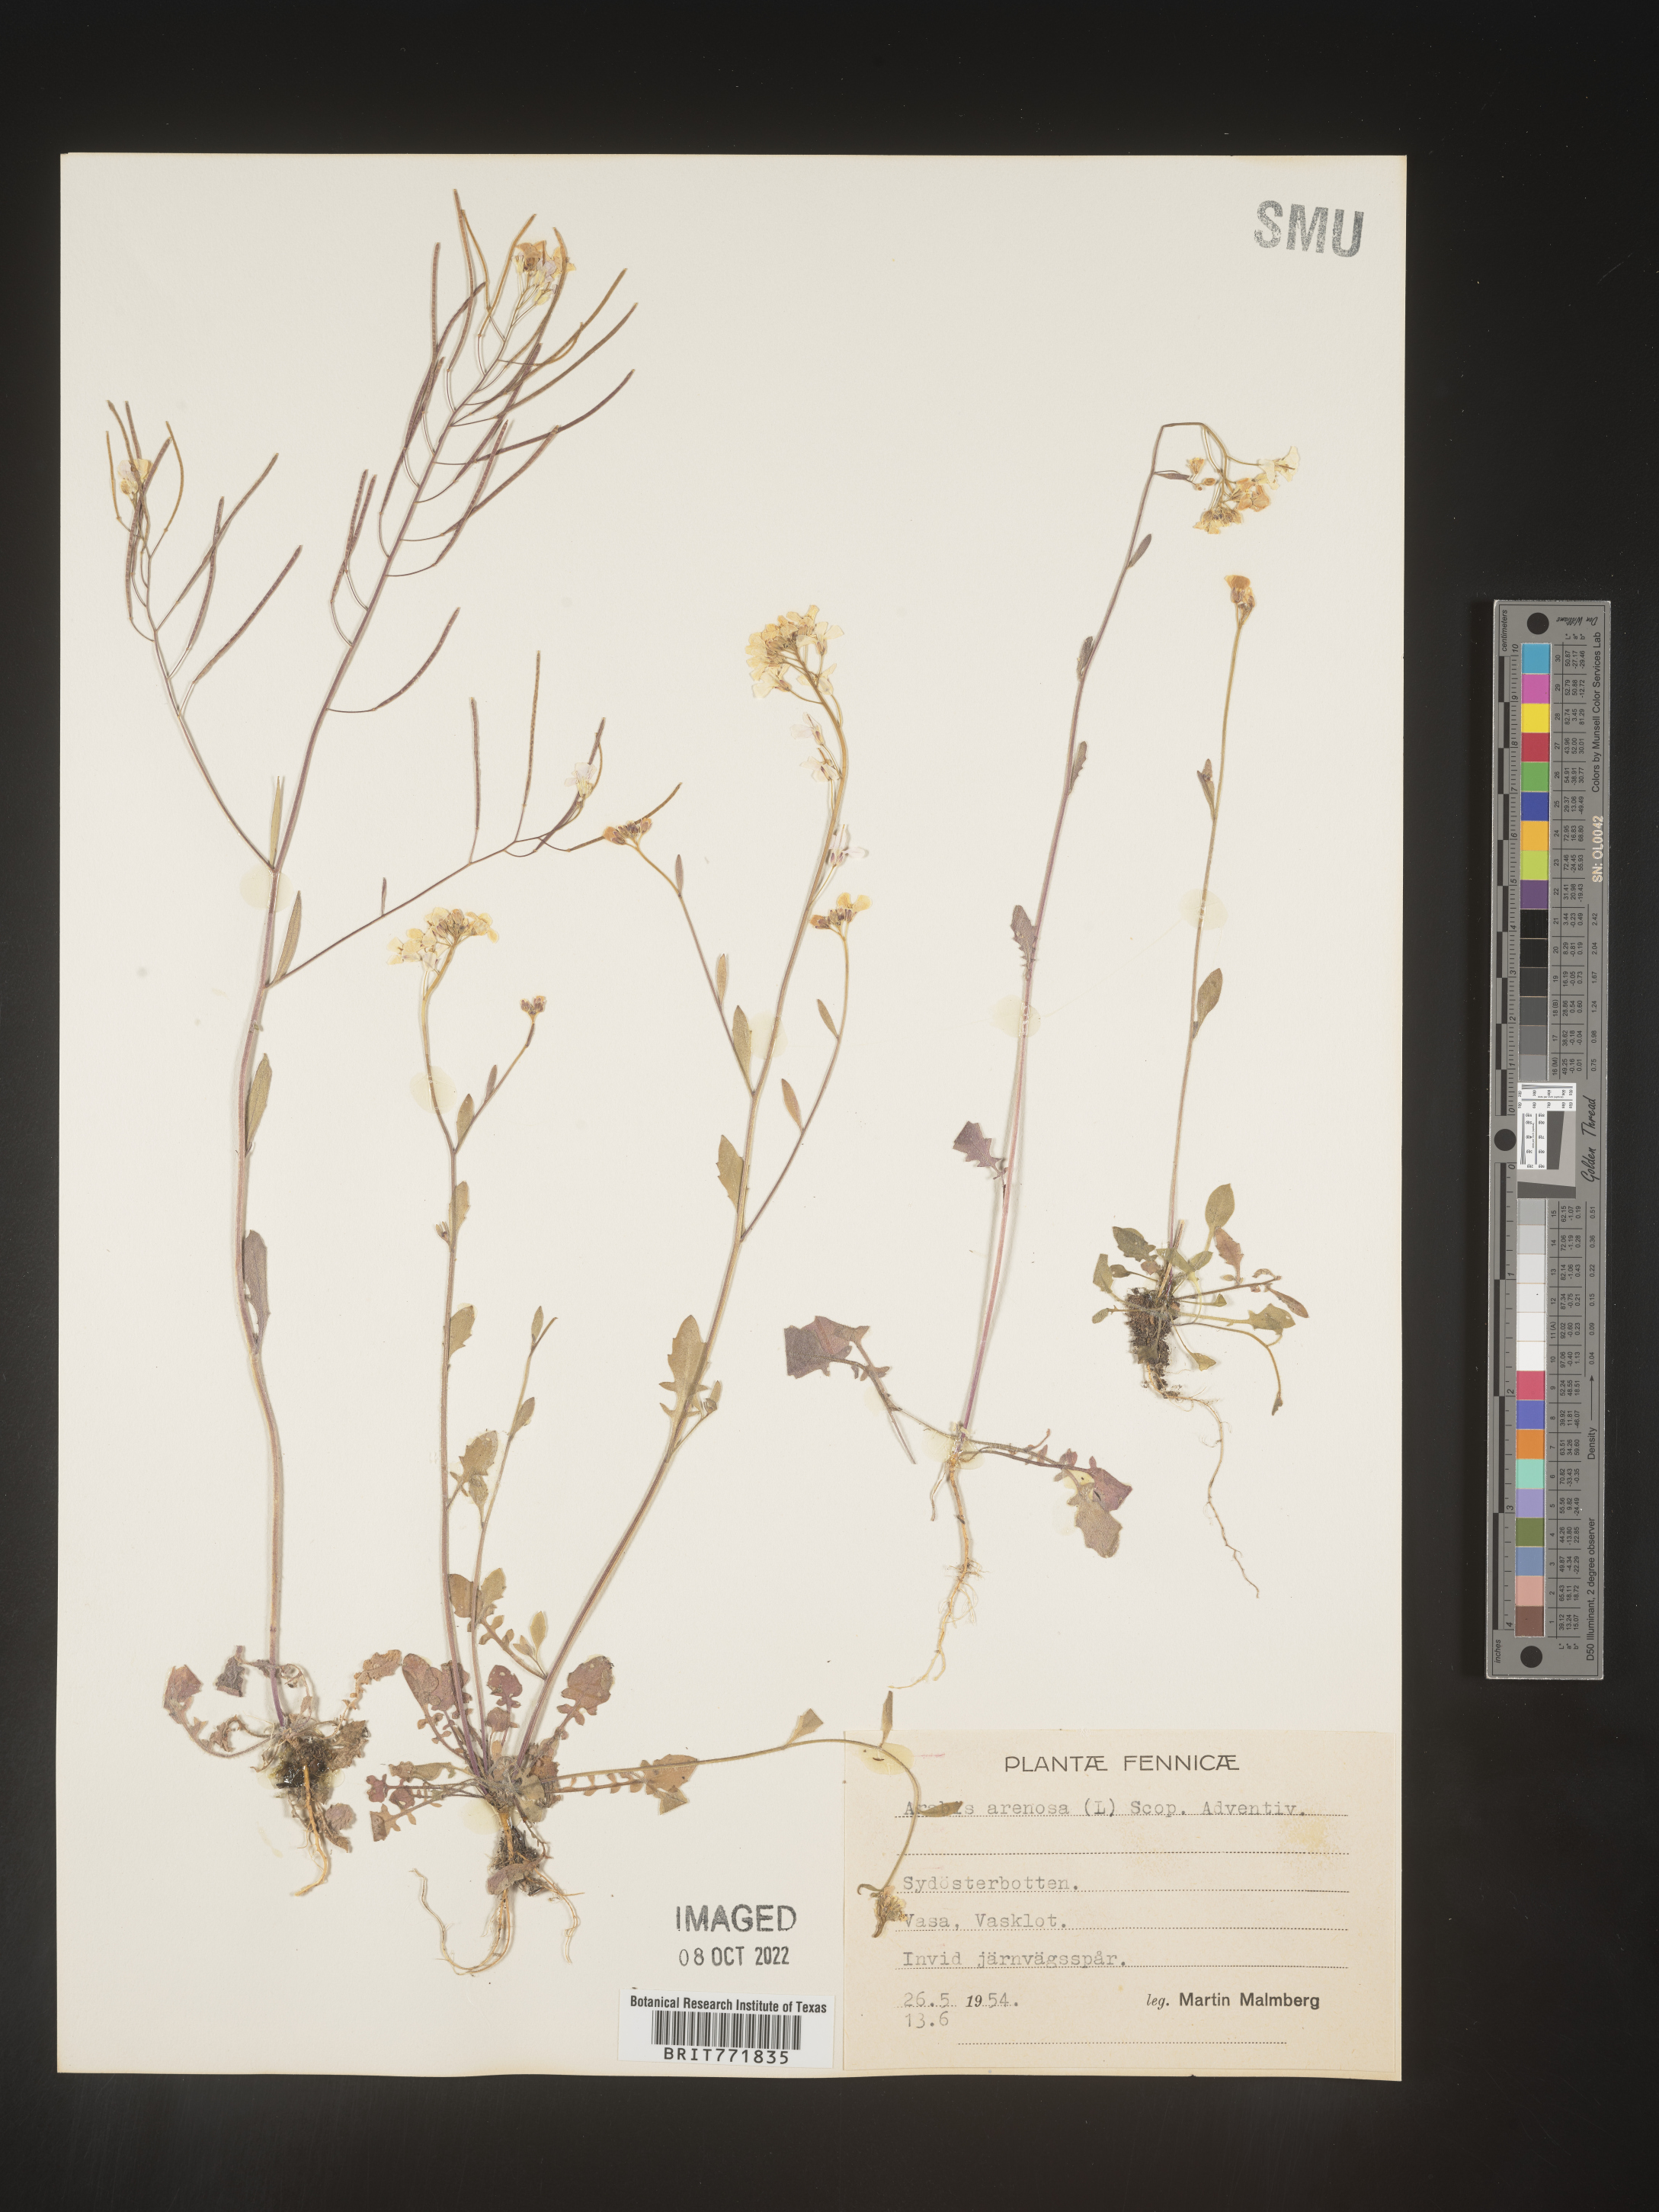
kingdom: Plantae
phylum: Tracheophyta
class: Magnoliopsida
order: Brassicales
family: Brassicaceae
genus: Arabis
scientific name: Arabis
